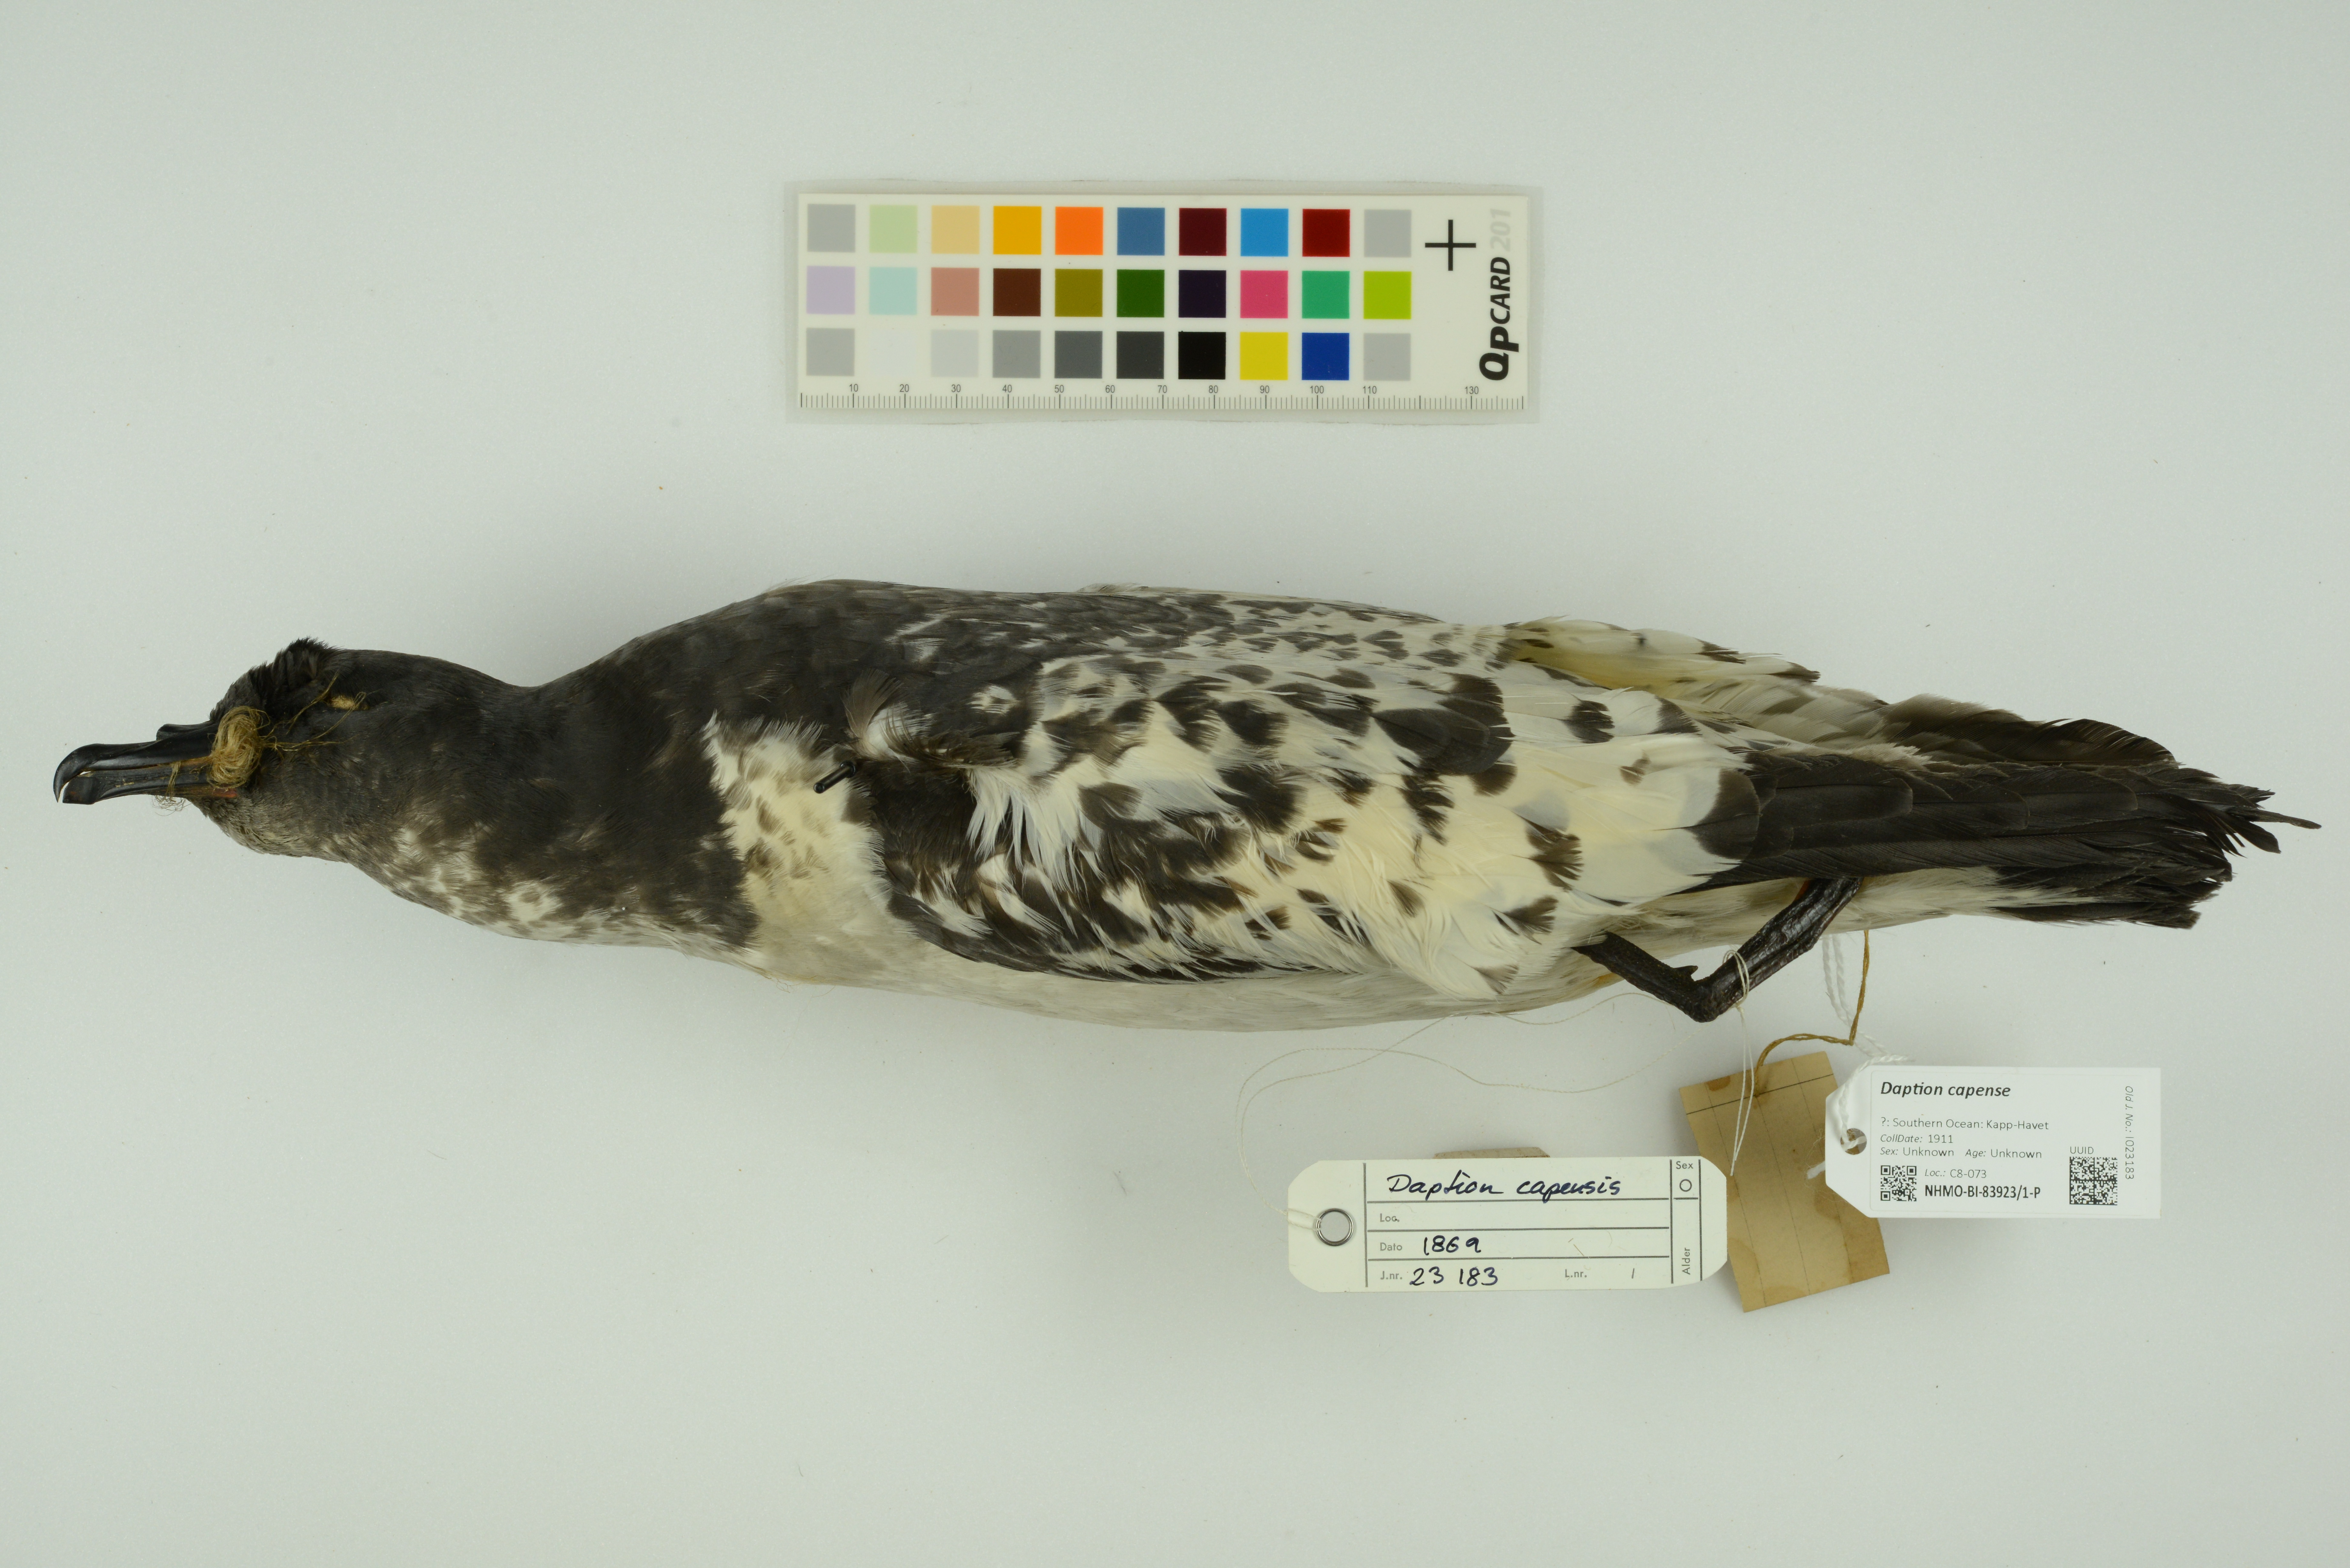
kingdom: Animalia
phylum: Chordata
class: Aves
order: Procellariiformes
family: Procellariidae
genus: Daption
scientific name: Daption capense
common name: Cape petrel
